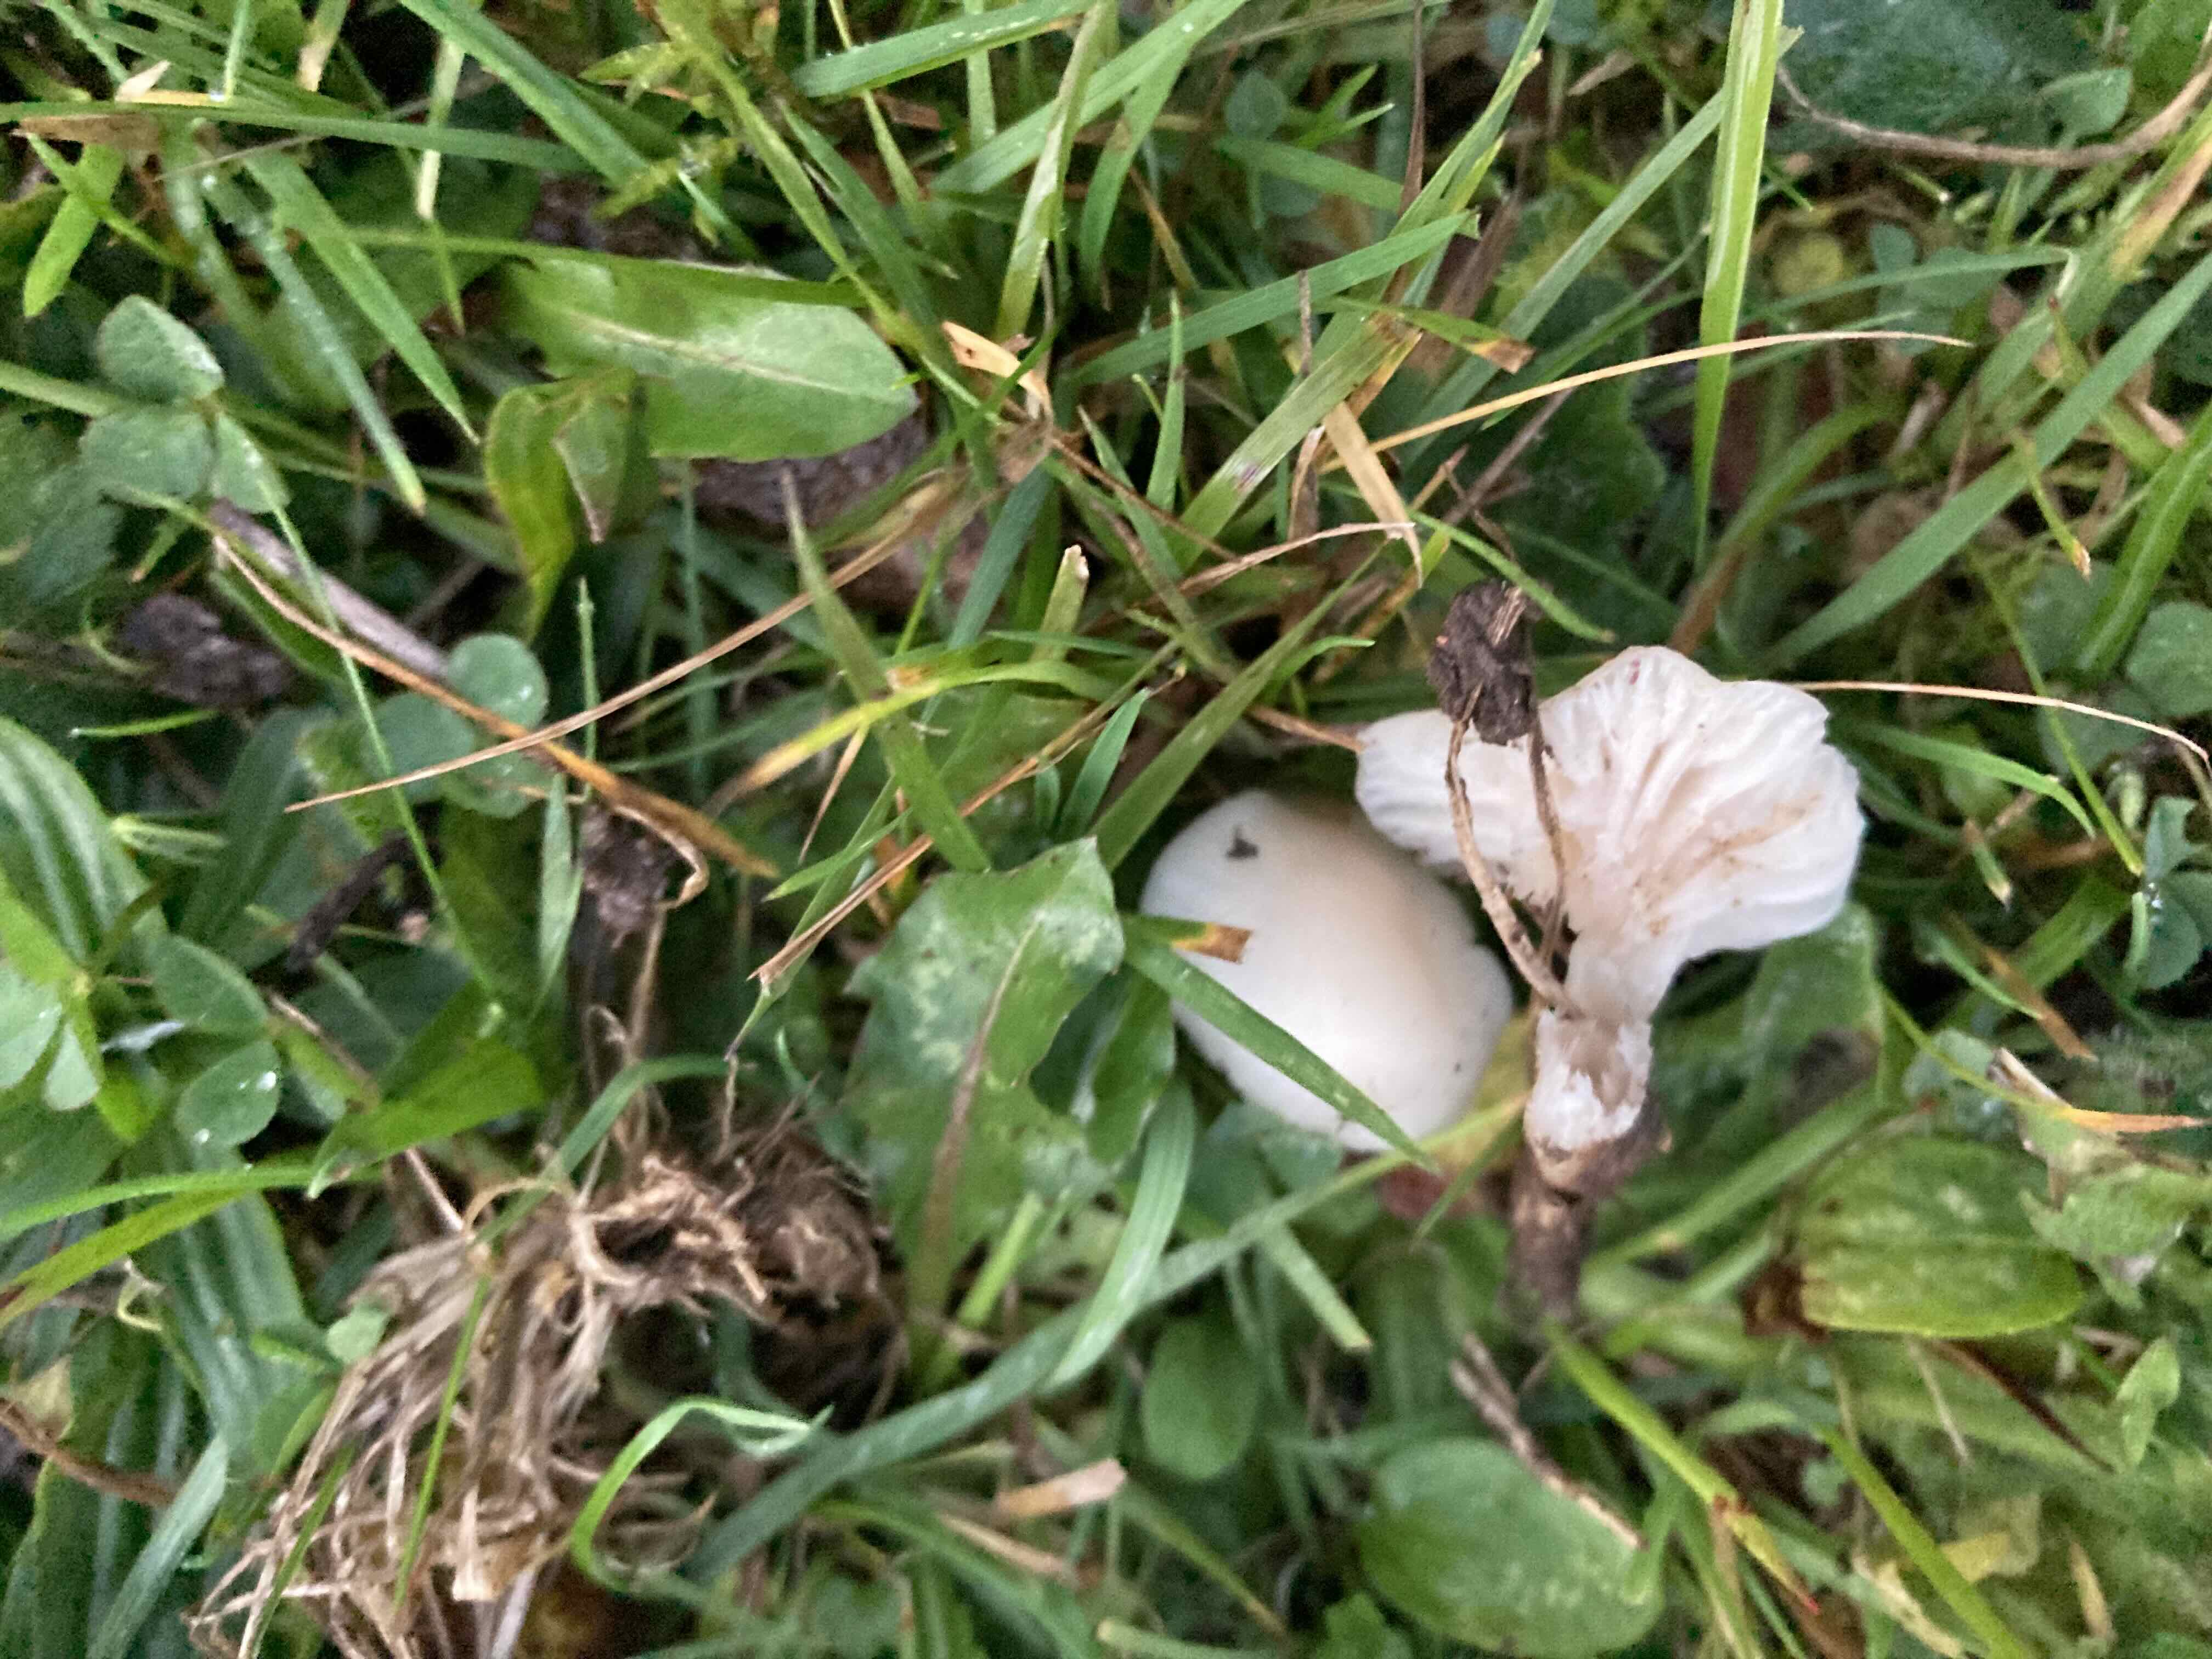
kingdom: Fungi
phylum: Basidiomycota
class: Agaricomycetes
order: Agaricales
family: Hygrophoraceae
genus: Cuphophyllus
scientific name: Cuphophyllus virgineus
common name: snehvid vokshat
